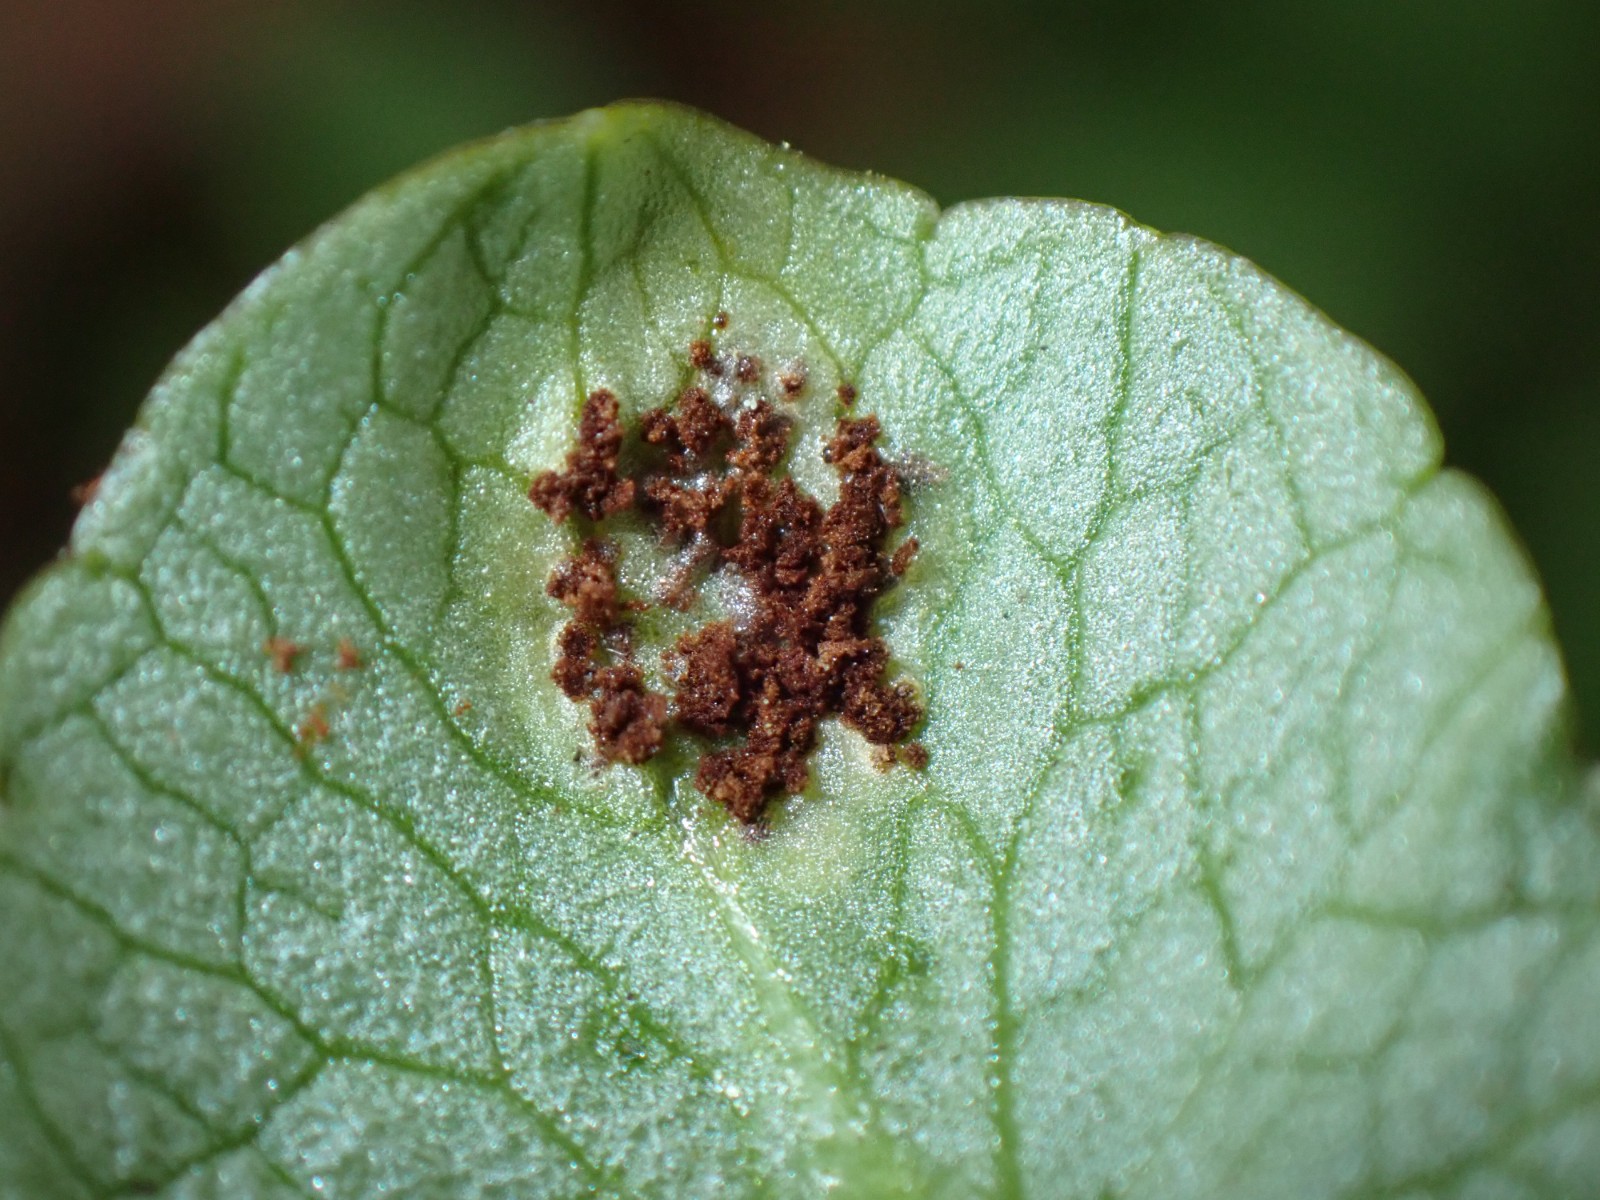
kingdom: Fungi
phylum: Basidiomycota
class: Pucciniomycetes
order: Pucciniales
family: Pucciniaceae
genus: Uromyces
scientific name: Uromyces ficariae
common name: vorterod-encellerust
